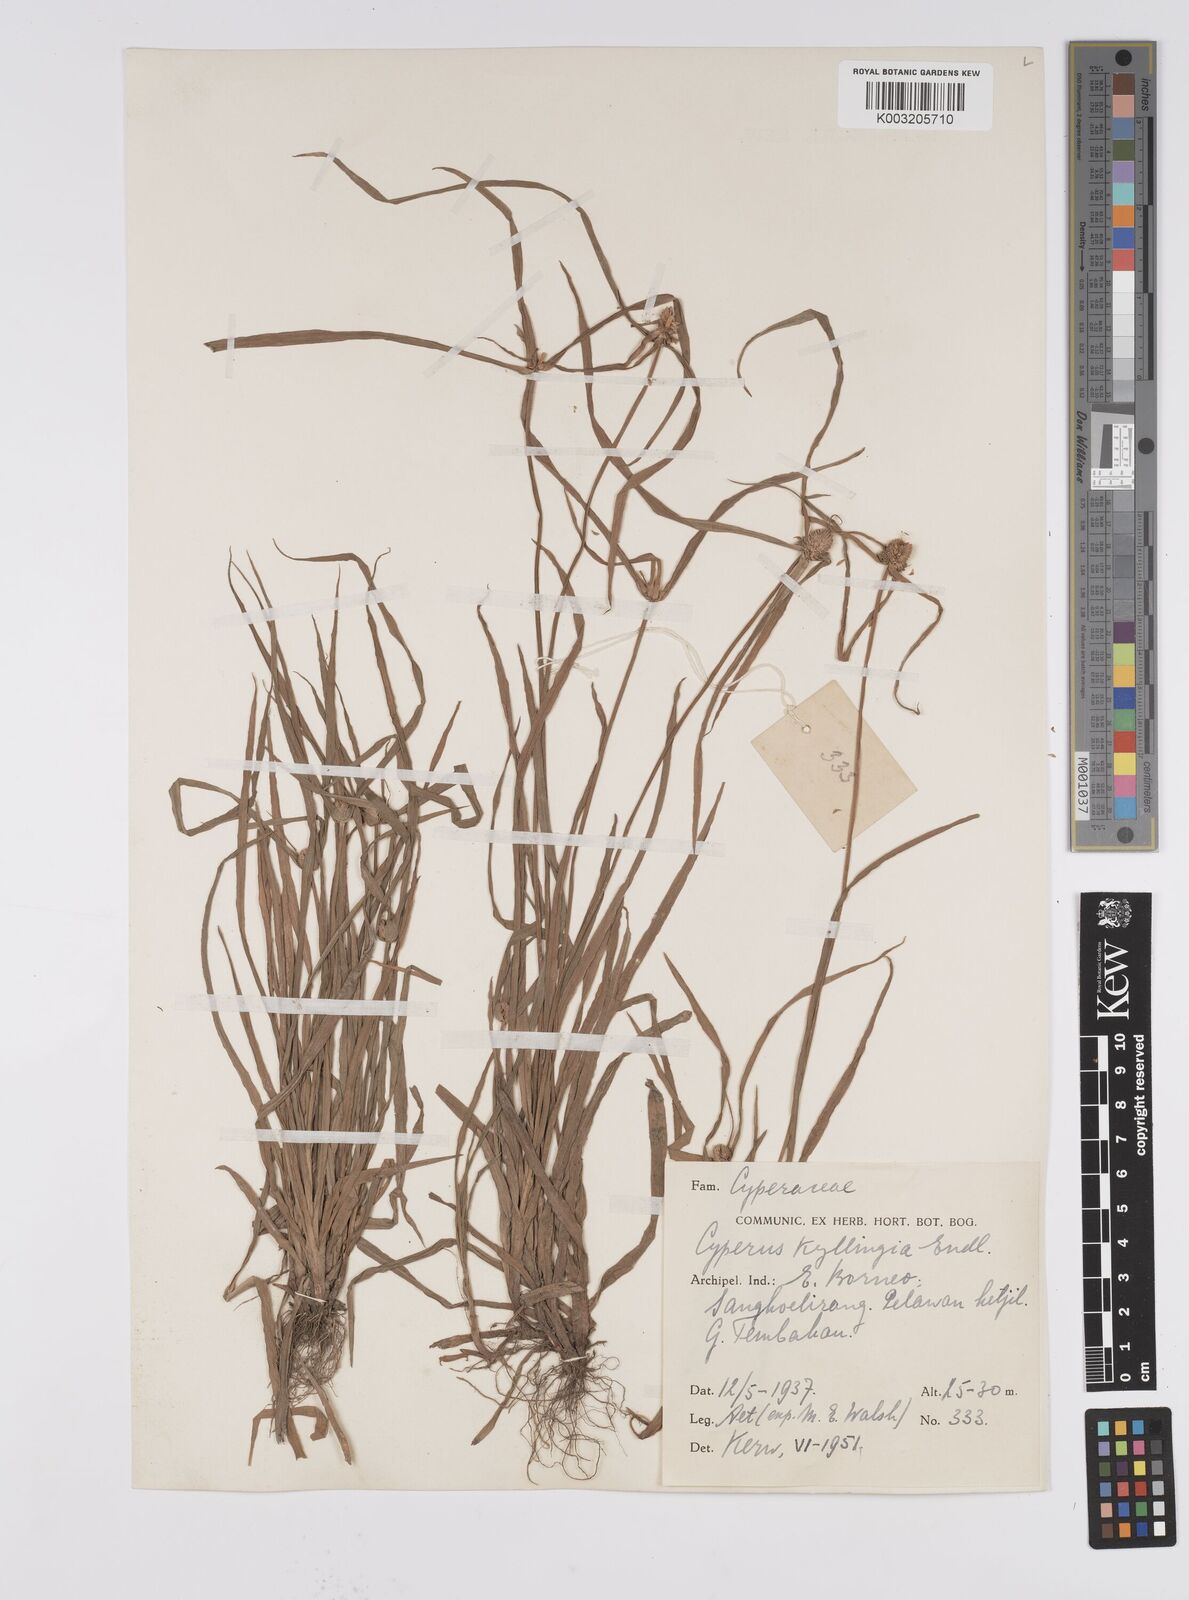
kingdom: Plantae
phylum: Tracheophyta
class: Liliopsida
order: Poales
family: Cyperaceae
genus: Cyperus
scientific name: Cyperus nemoralis
